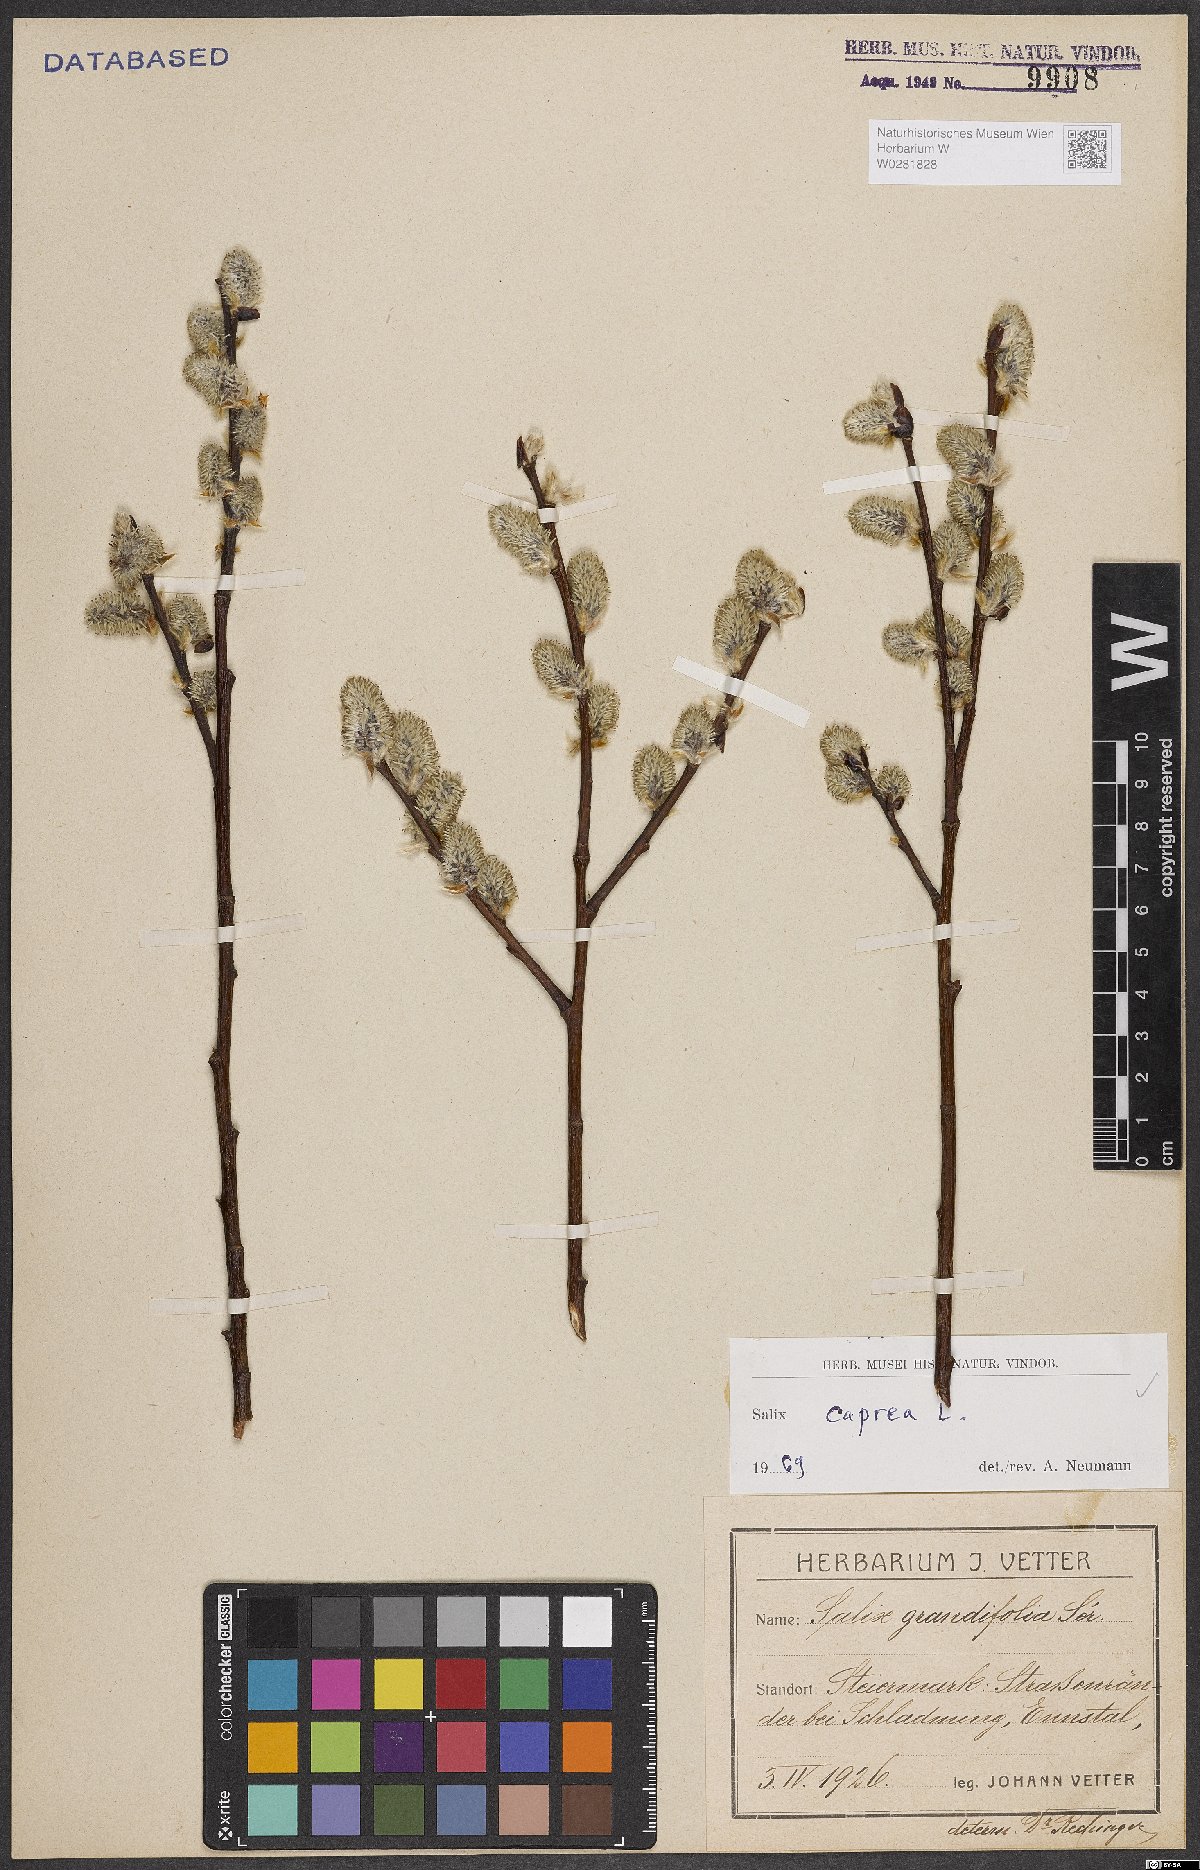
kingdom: Plantae
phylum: Tracheophyta
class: Magnoliopsida
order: Malpighiales
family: Salicaceae
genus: Salix
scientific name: Salix caprea
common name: Goat willow
